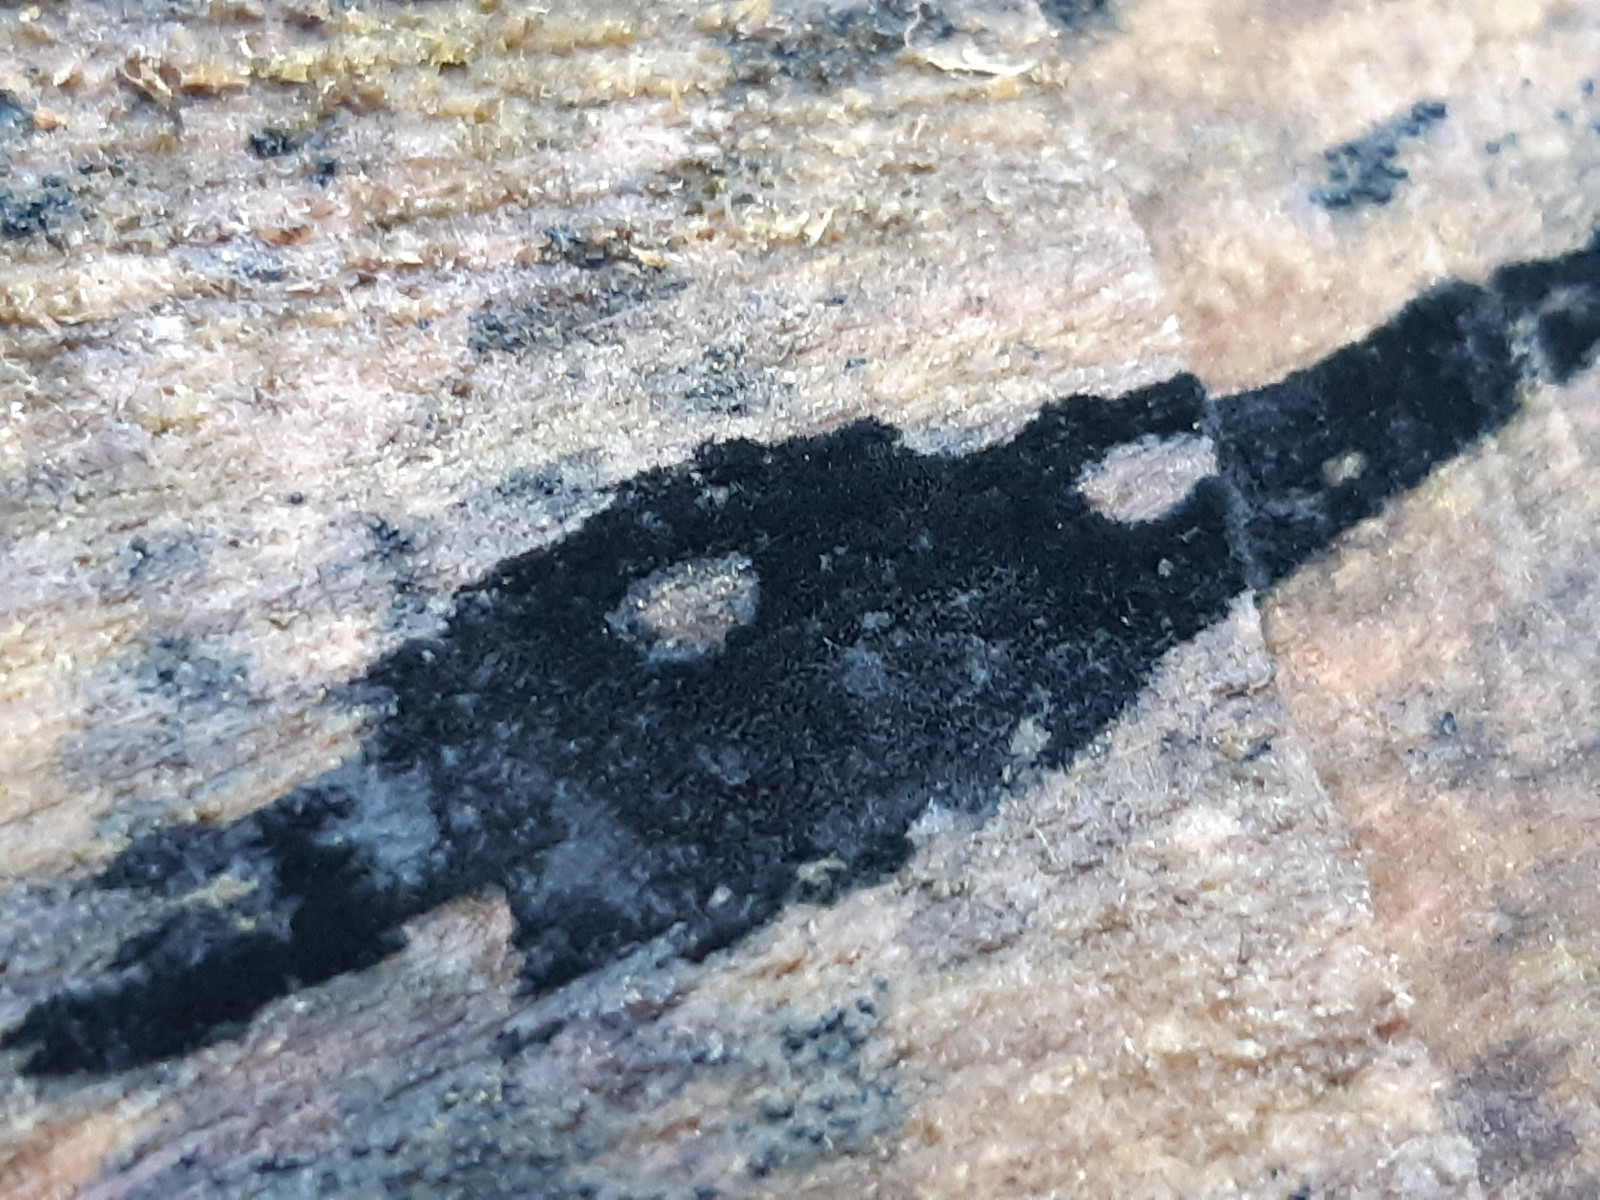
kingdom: Fungi
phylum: Ascomycota
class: Leotiomycetes
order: Helotiales
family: Helotiaceae
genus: Bispora
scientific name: Bispora pallescens
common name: måtte-snitskive
